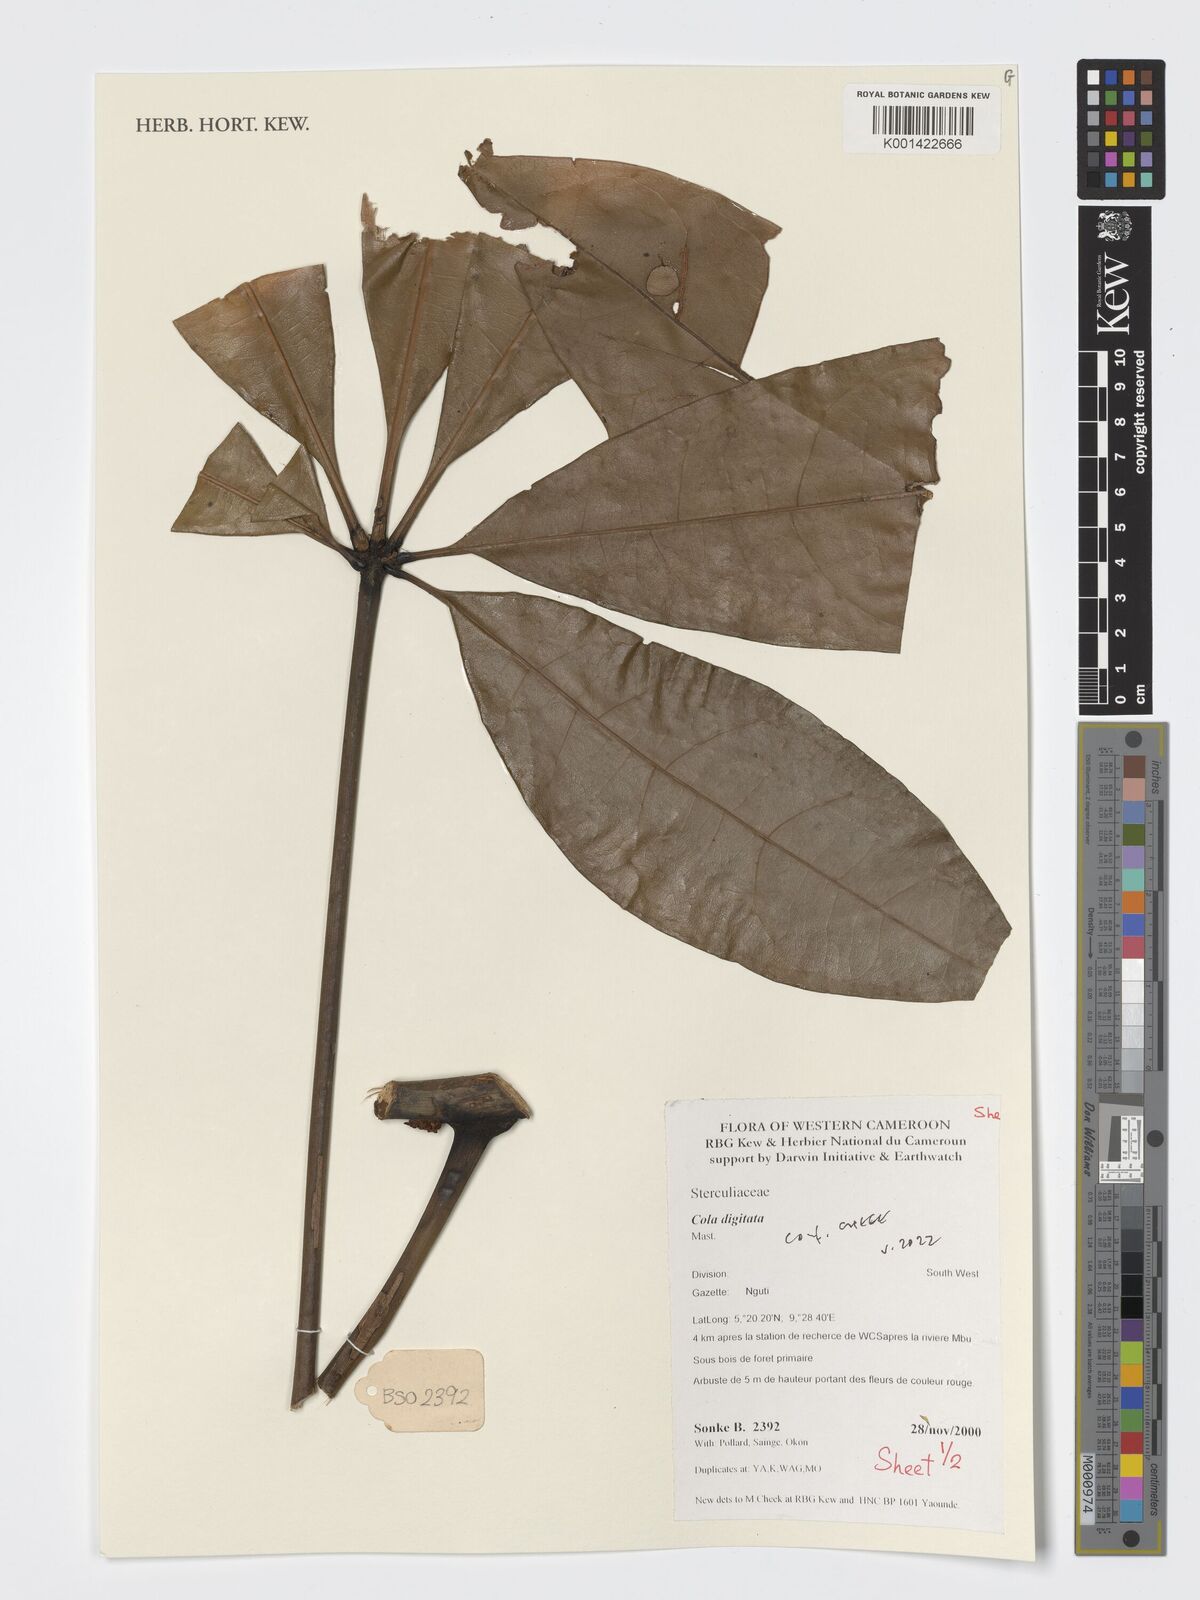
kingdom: Plantae
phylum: Tracheophyta
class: Magnoliopsida
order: Malvales
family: Malvaceae
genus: Cola
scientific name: Cola digitata
